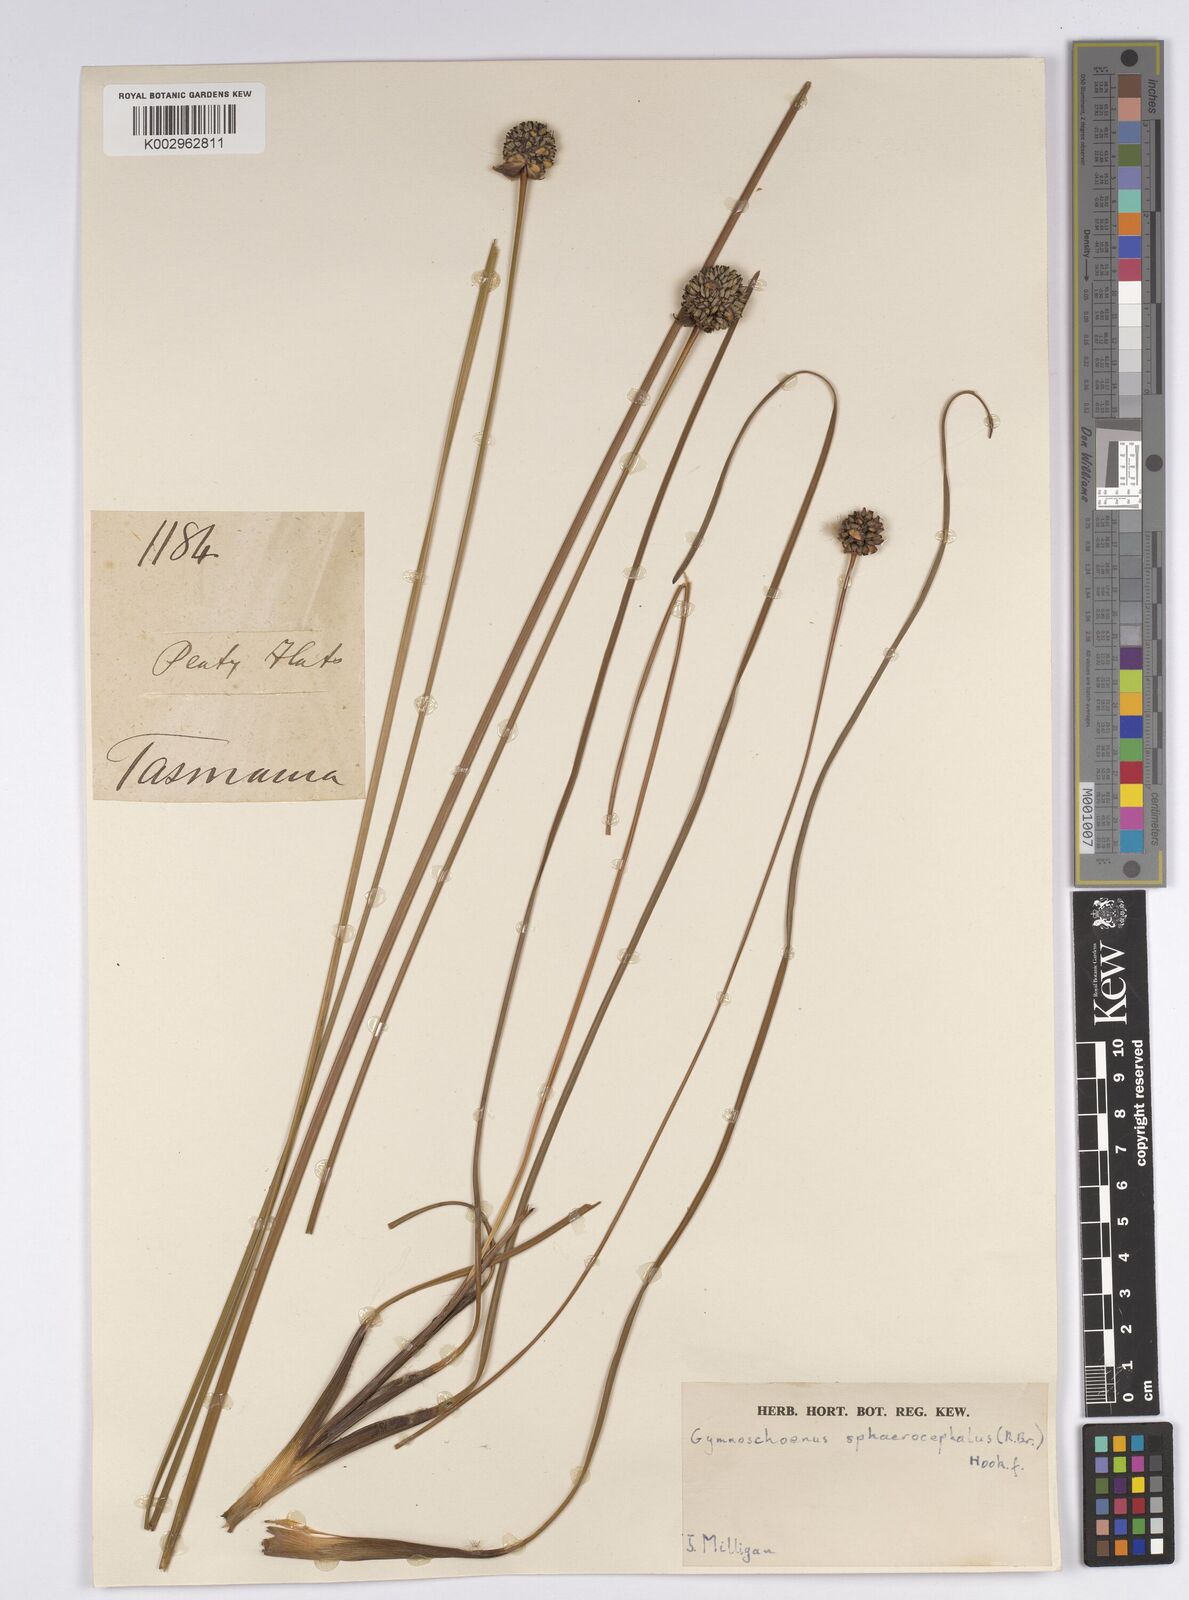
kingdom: Plantae
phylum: Tracheophyta
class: Liliopsida
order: Poales
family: Cyperaceae
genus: Gymnoschoenus
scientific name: Gymnoschoenus sphaerocephalus
